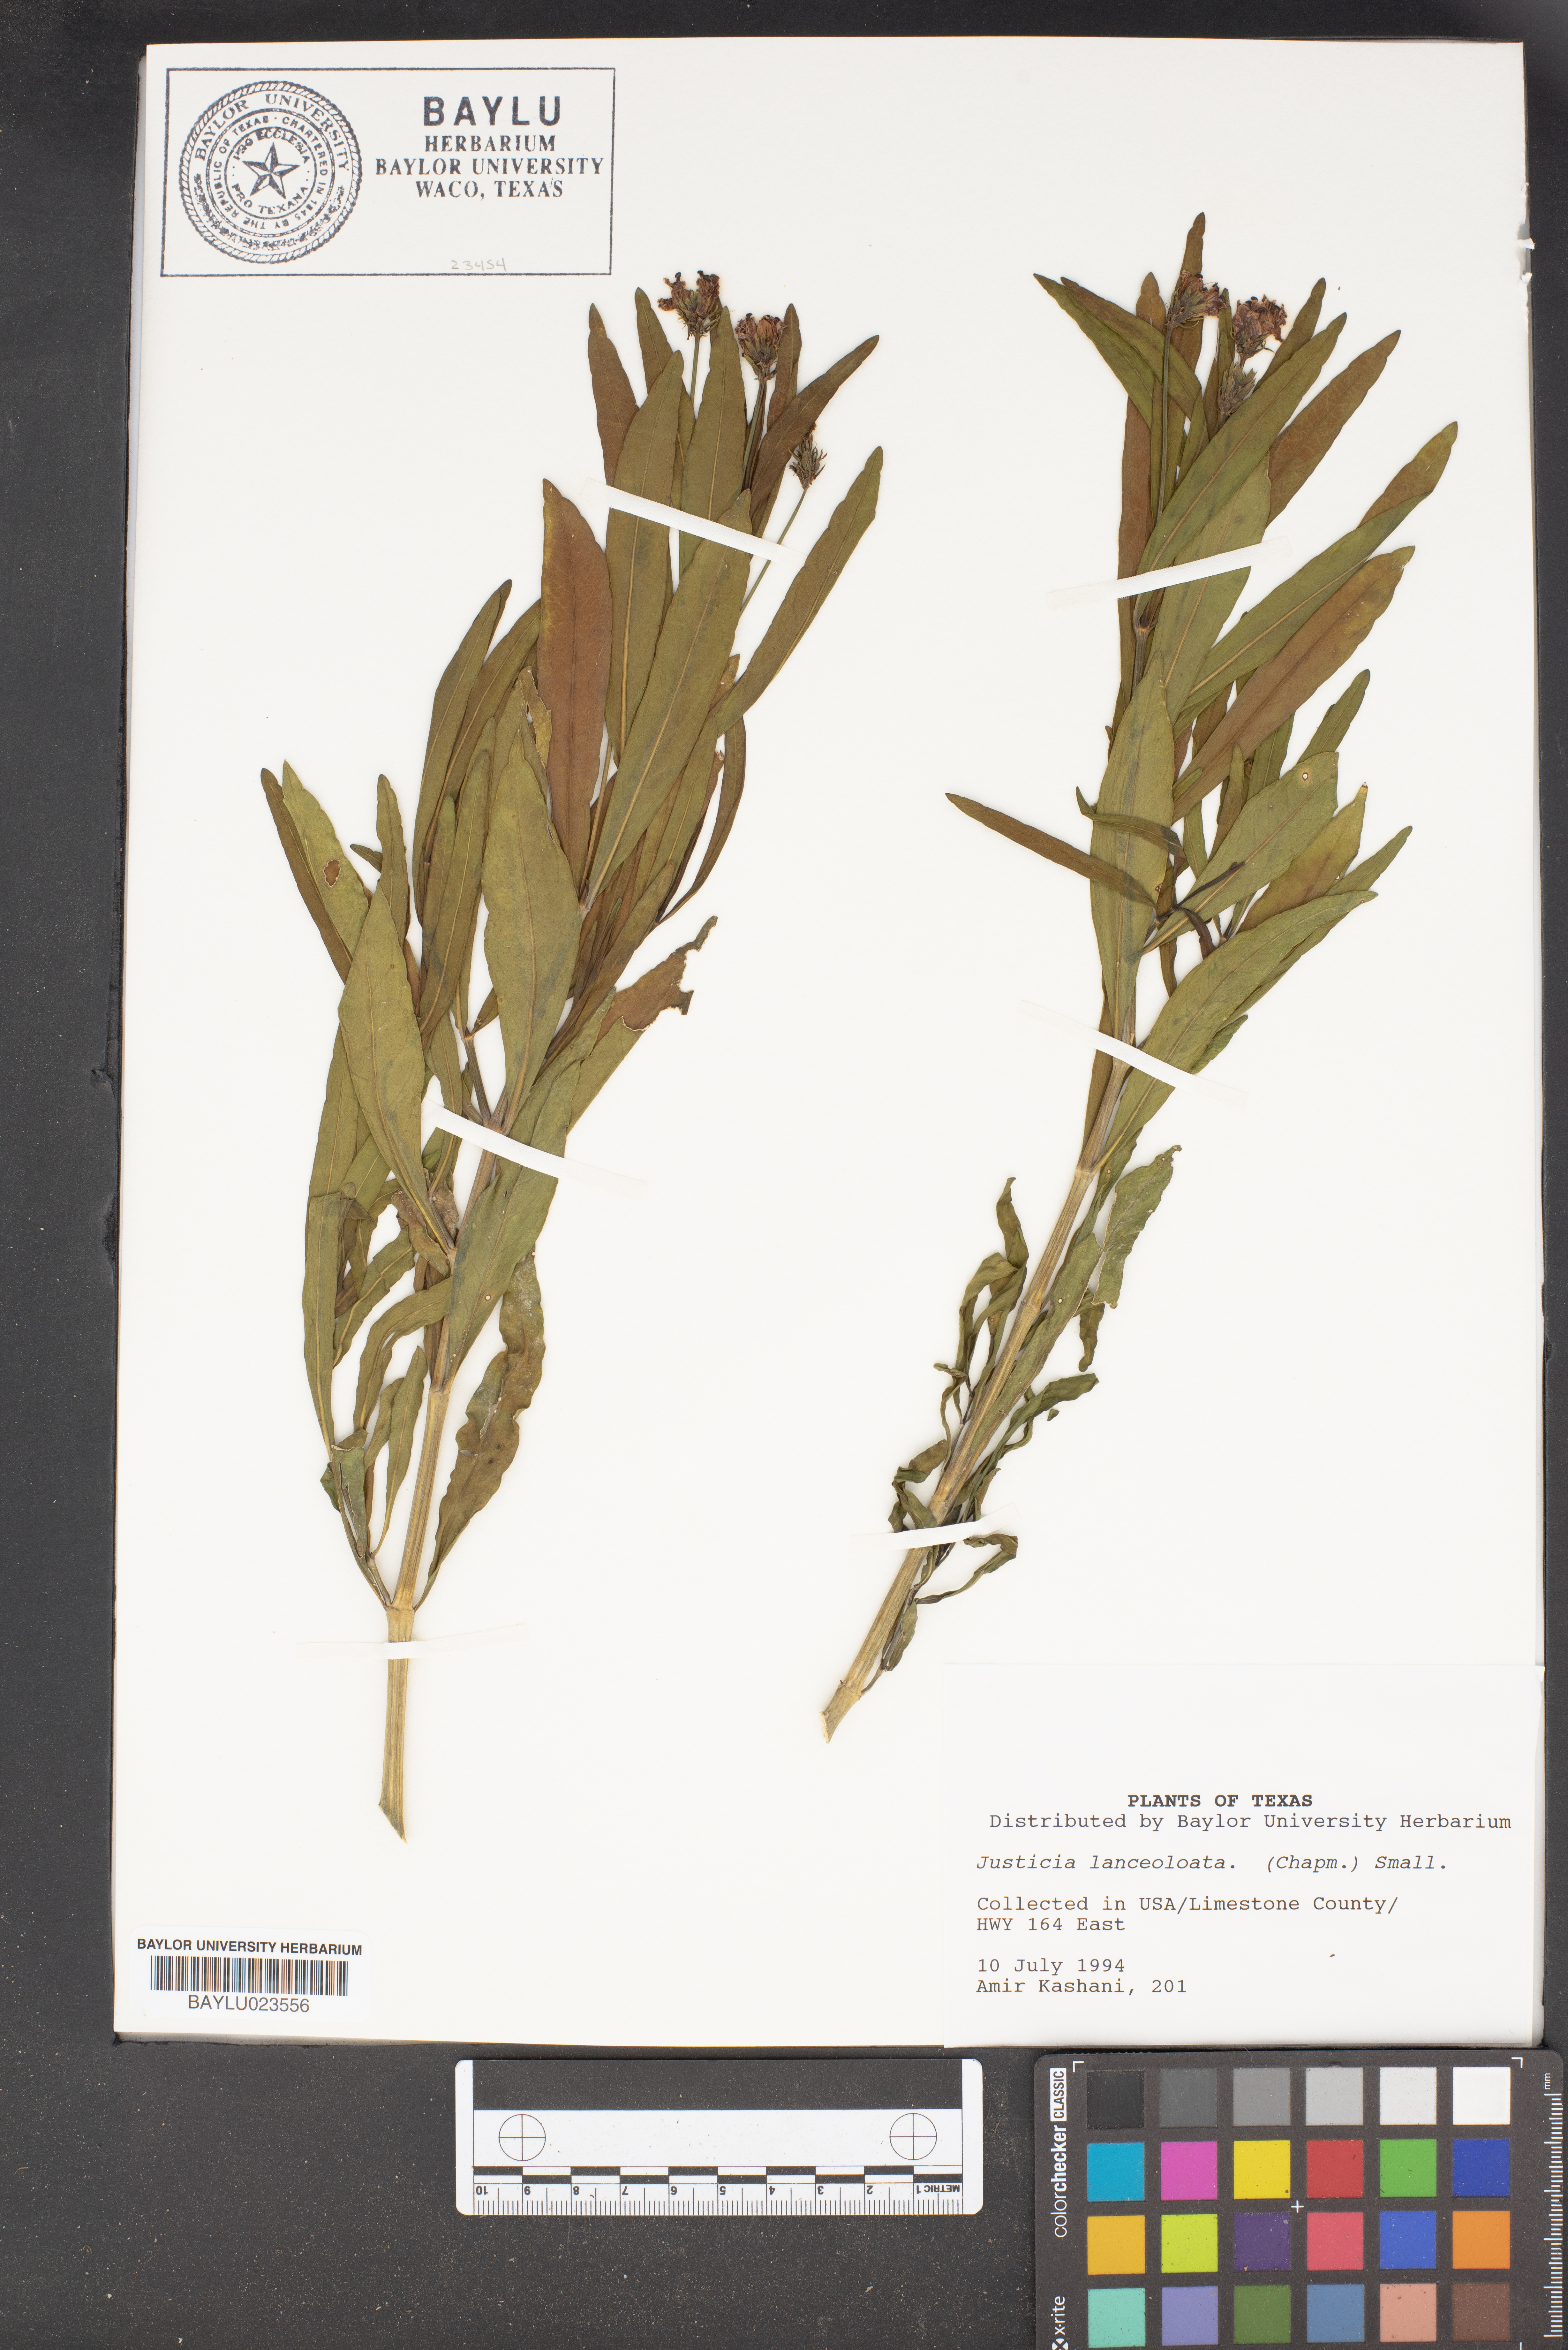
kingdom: Plantae
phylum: Tracheophyta
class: Magnoliopsida
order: Lamiales
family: Acanthaceae
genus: Justicia
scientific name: Justicia lanceolata
